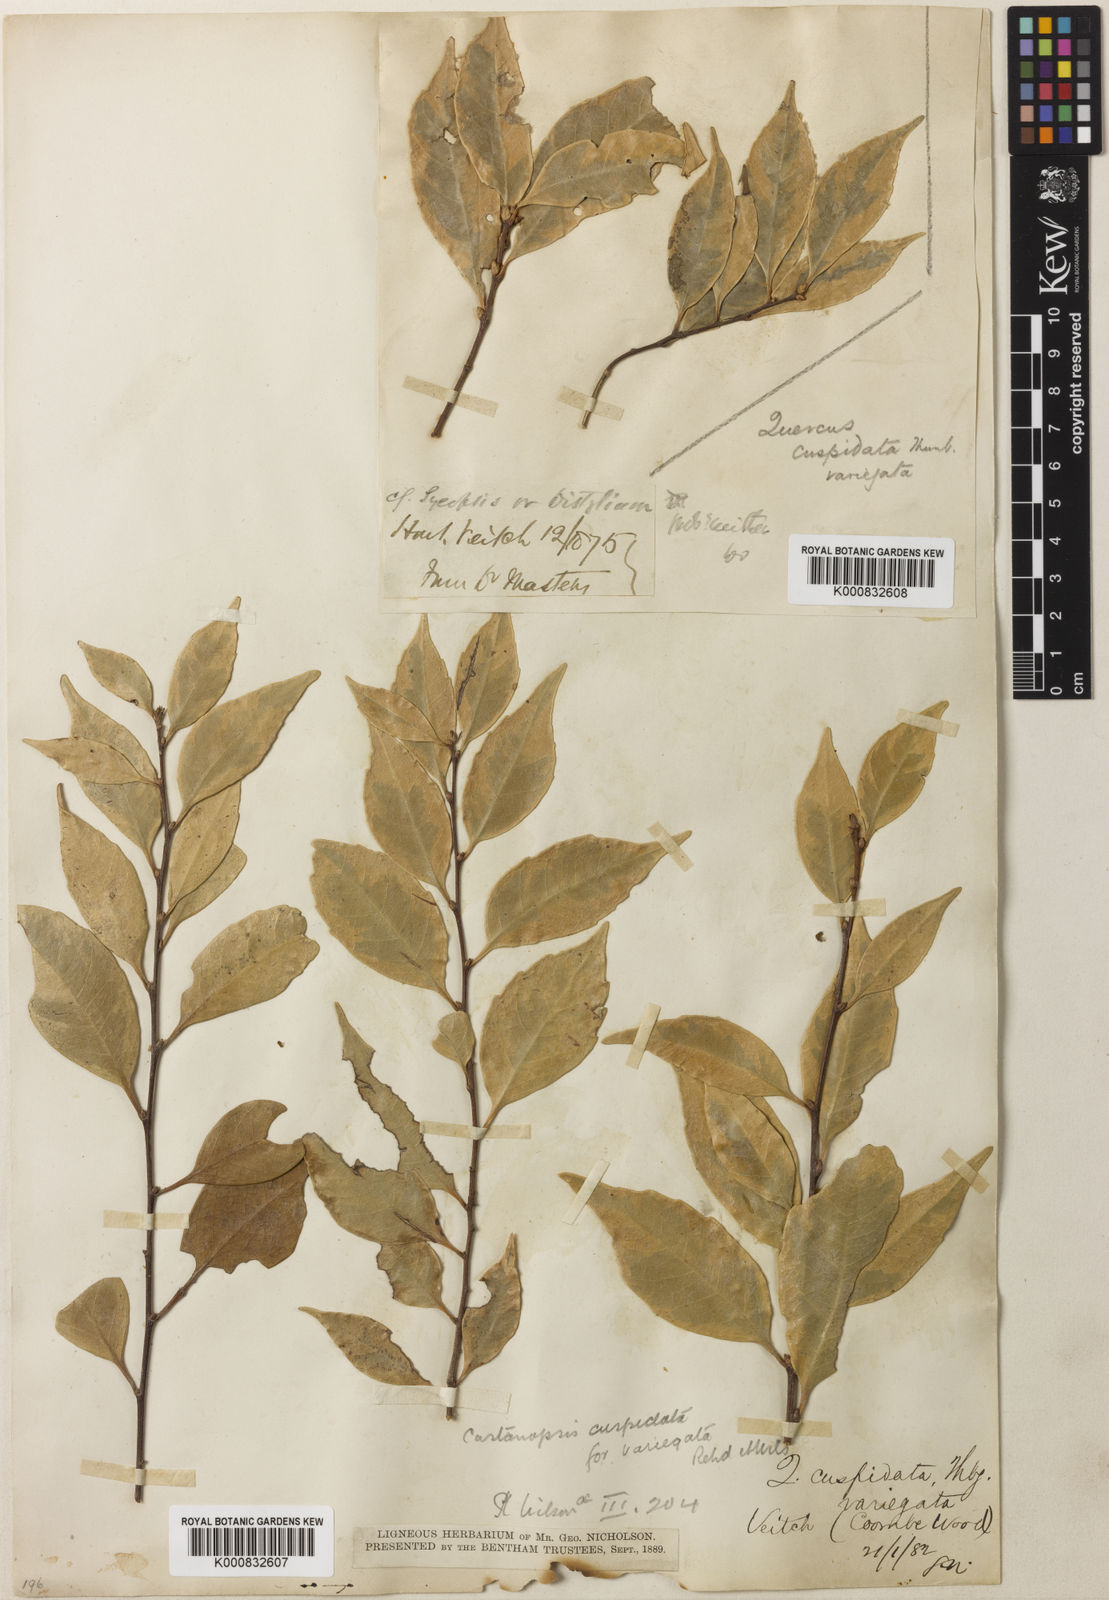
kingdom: Plantae
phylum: Tracheophyta
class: Magnoliopsida
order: Fagales
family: Fagaceae
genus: Castanopsis
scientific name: Castanopsis cuspidata
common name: Japanese chinquapin
